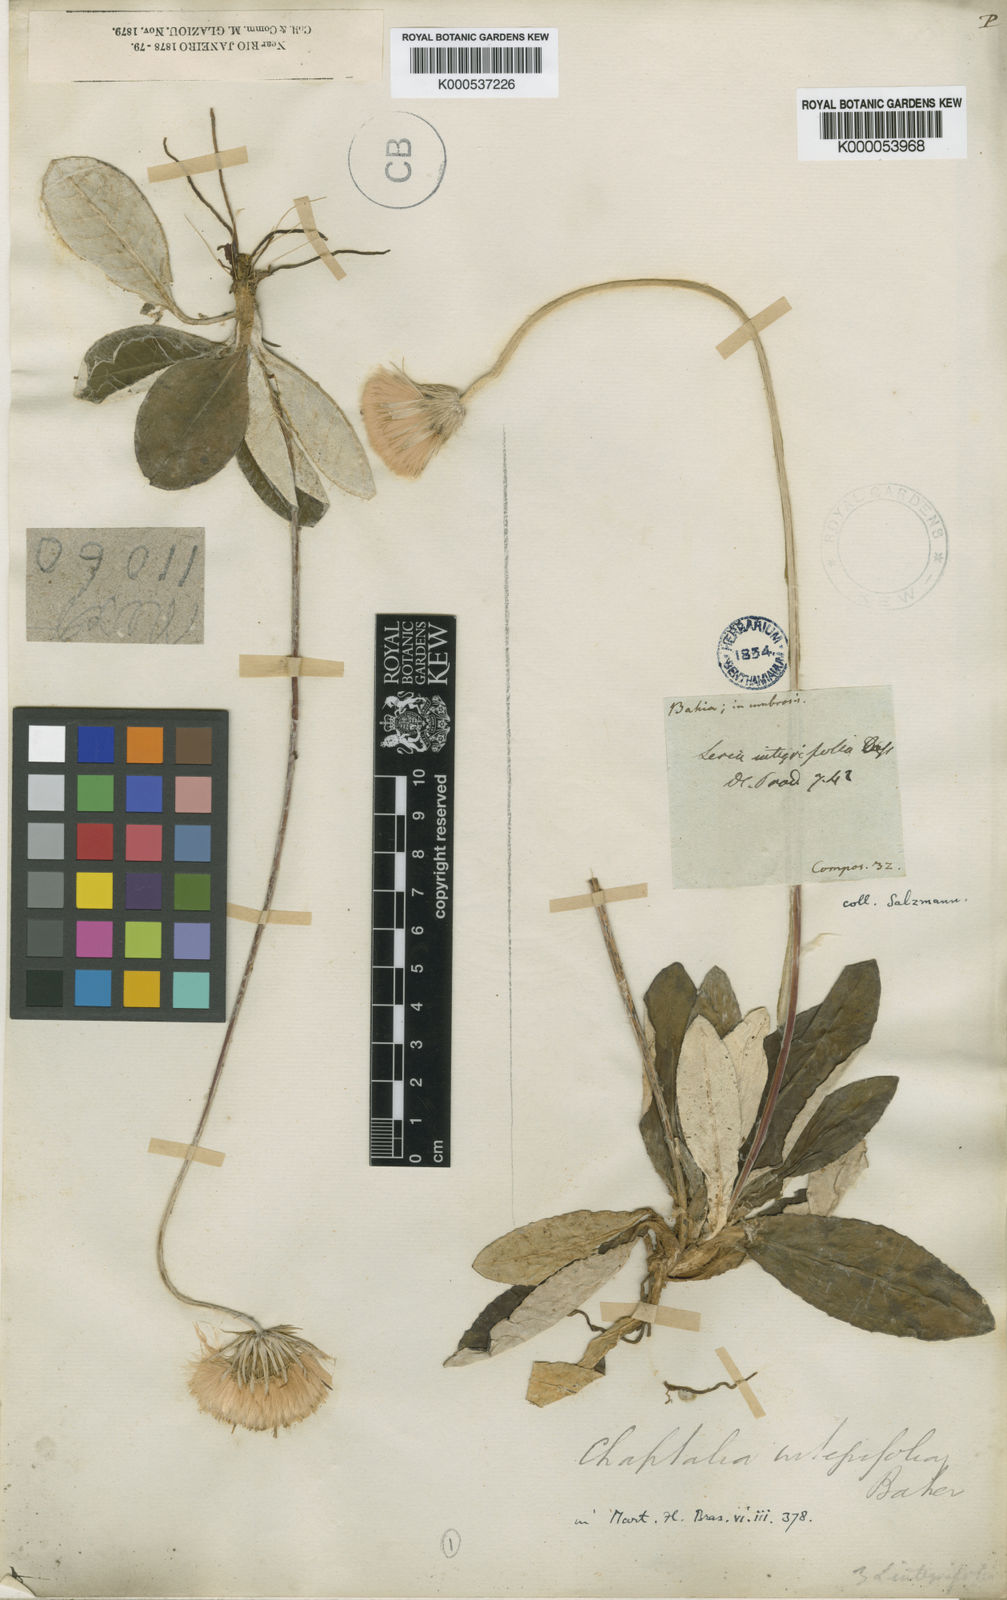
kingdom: Plantae
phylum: Tracheophyta
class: Magnoliopsida
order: Asterales
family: Asteraceae
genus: Chaptalia
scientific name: Chaptalia integerrima
